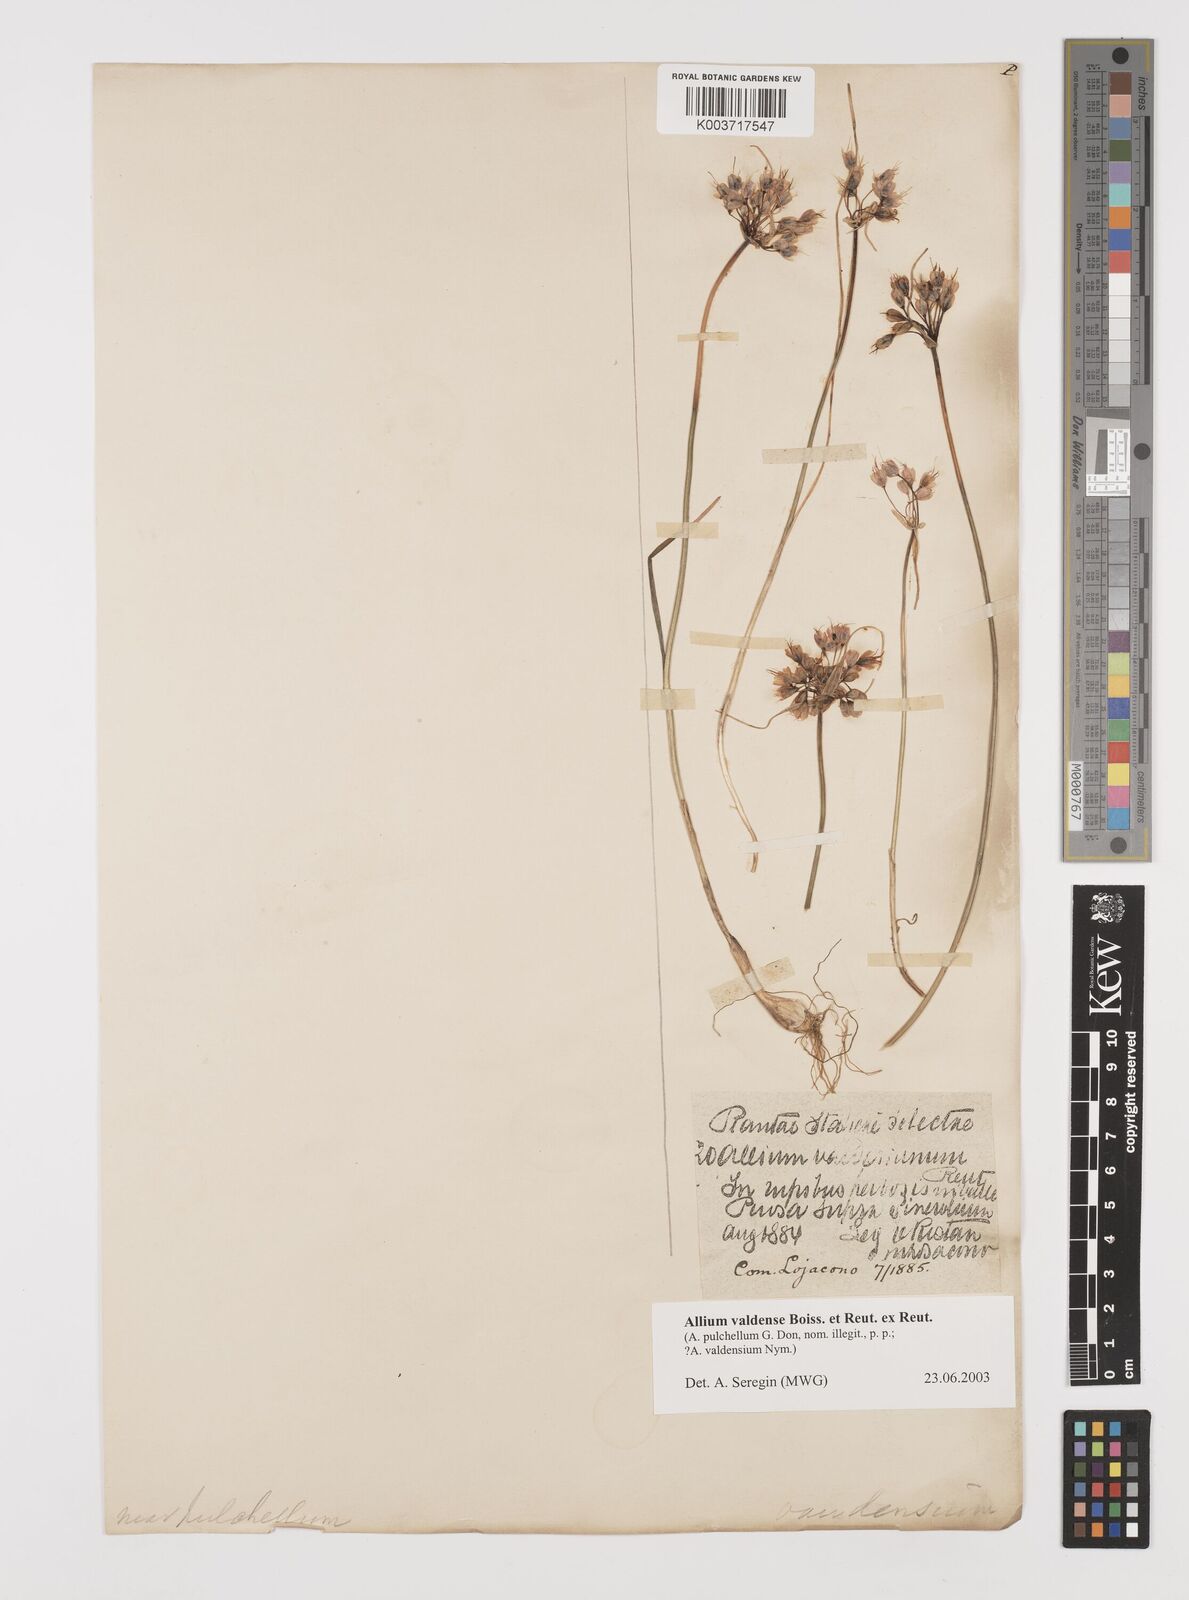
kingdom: Plantae
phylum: Tracheophyta
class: Liliopsida
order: Asparagales
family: Amaryllidaceae
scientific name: Amaryllidaceae
